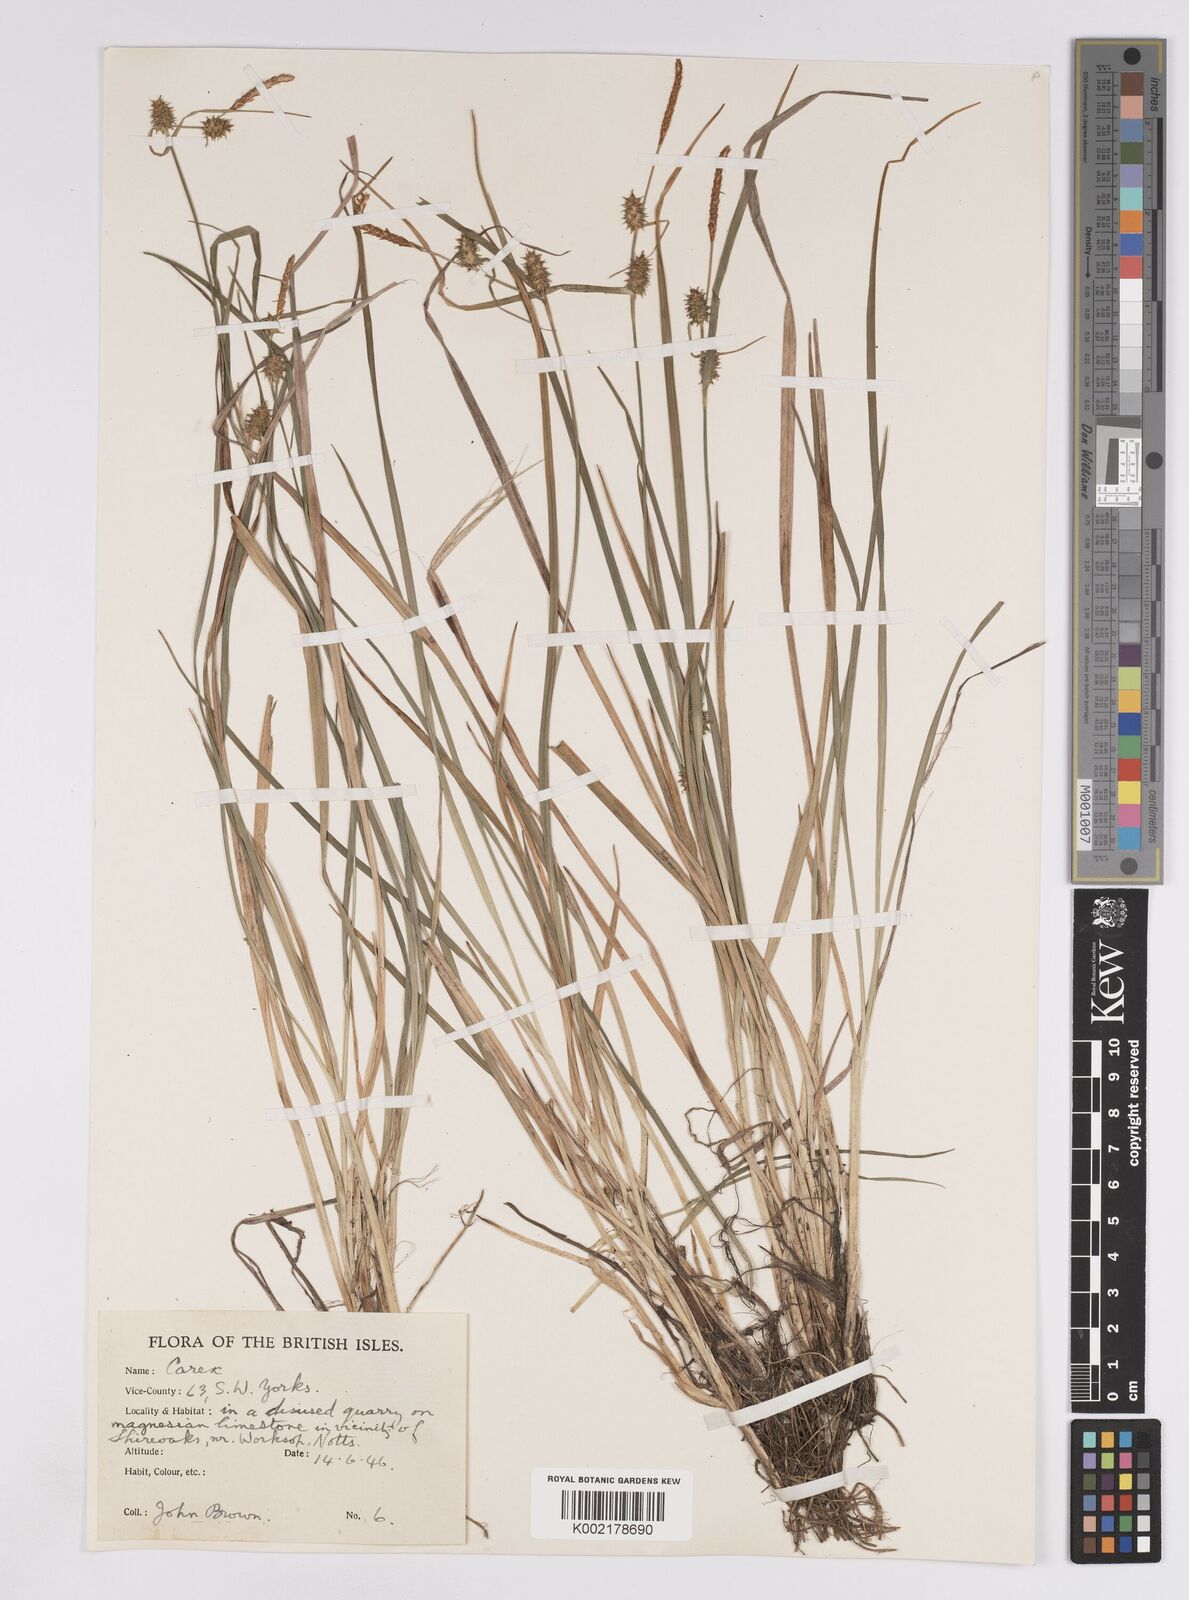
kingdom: Plantae
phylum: Tracheophyta
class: Liliopsida
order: Poales
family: Cyperaceae
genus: Carex
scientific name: Carex lepidocarpa
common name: Long-stalked yellow-sedge
